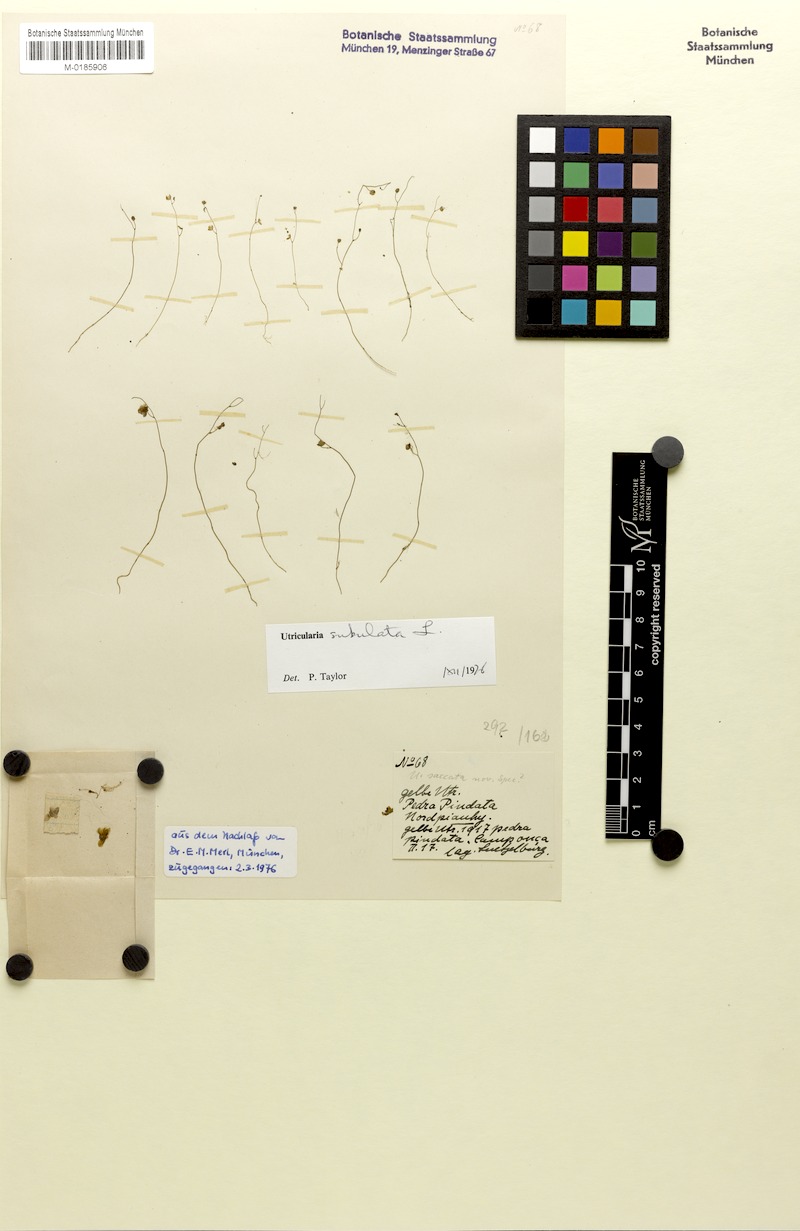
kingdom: Plantae
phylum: Tracheophyta
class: Magnoliopsida
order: Lamiales
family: Lentibulariaceae
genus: Utricularia
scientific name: Utricularia subulata
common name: Tiny bladderwort
